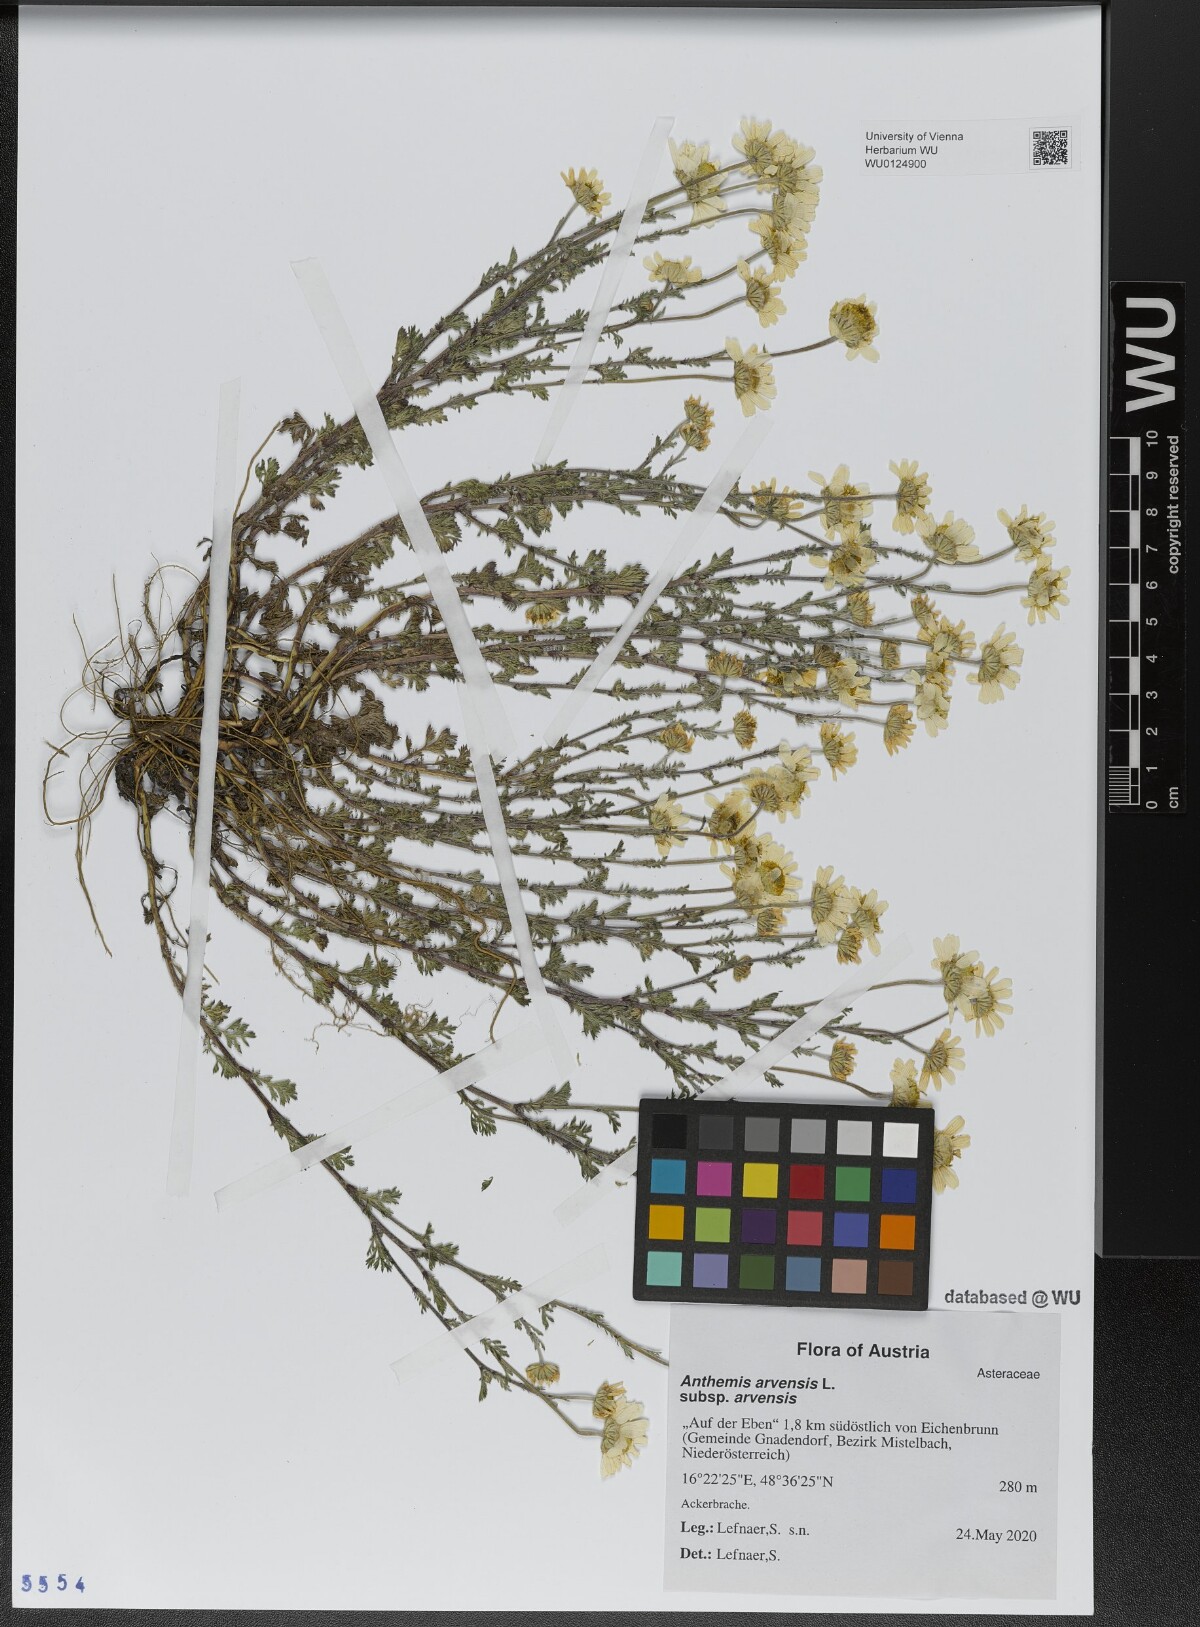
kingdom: Plantae
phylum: Tracheophyta
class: Magnoliopsida
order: Asterales
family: Asteraceae
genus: Anthemis
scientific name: Anthemis arvensis
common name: Corn chamomile
